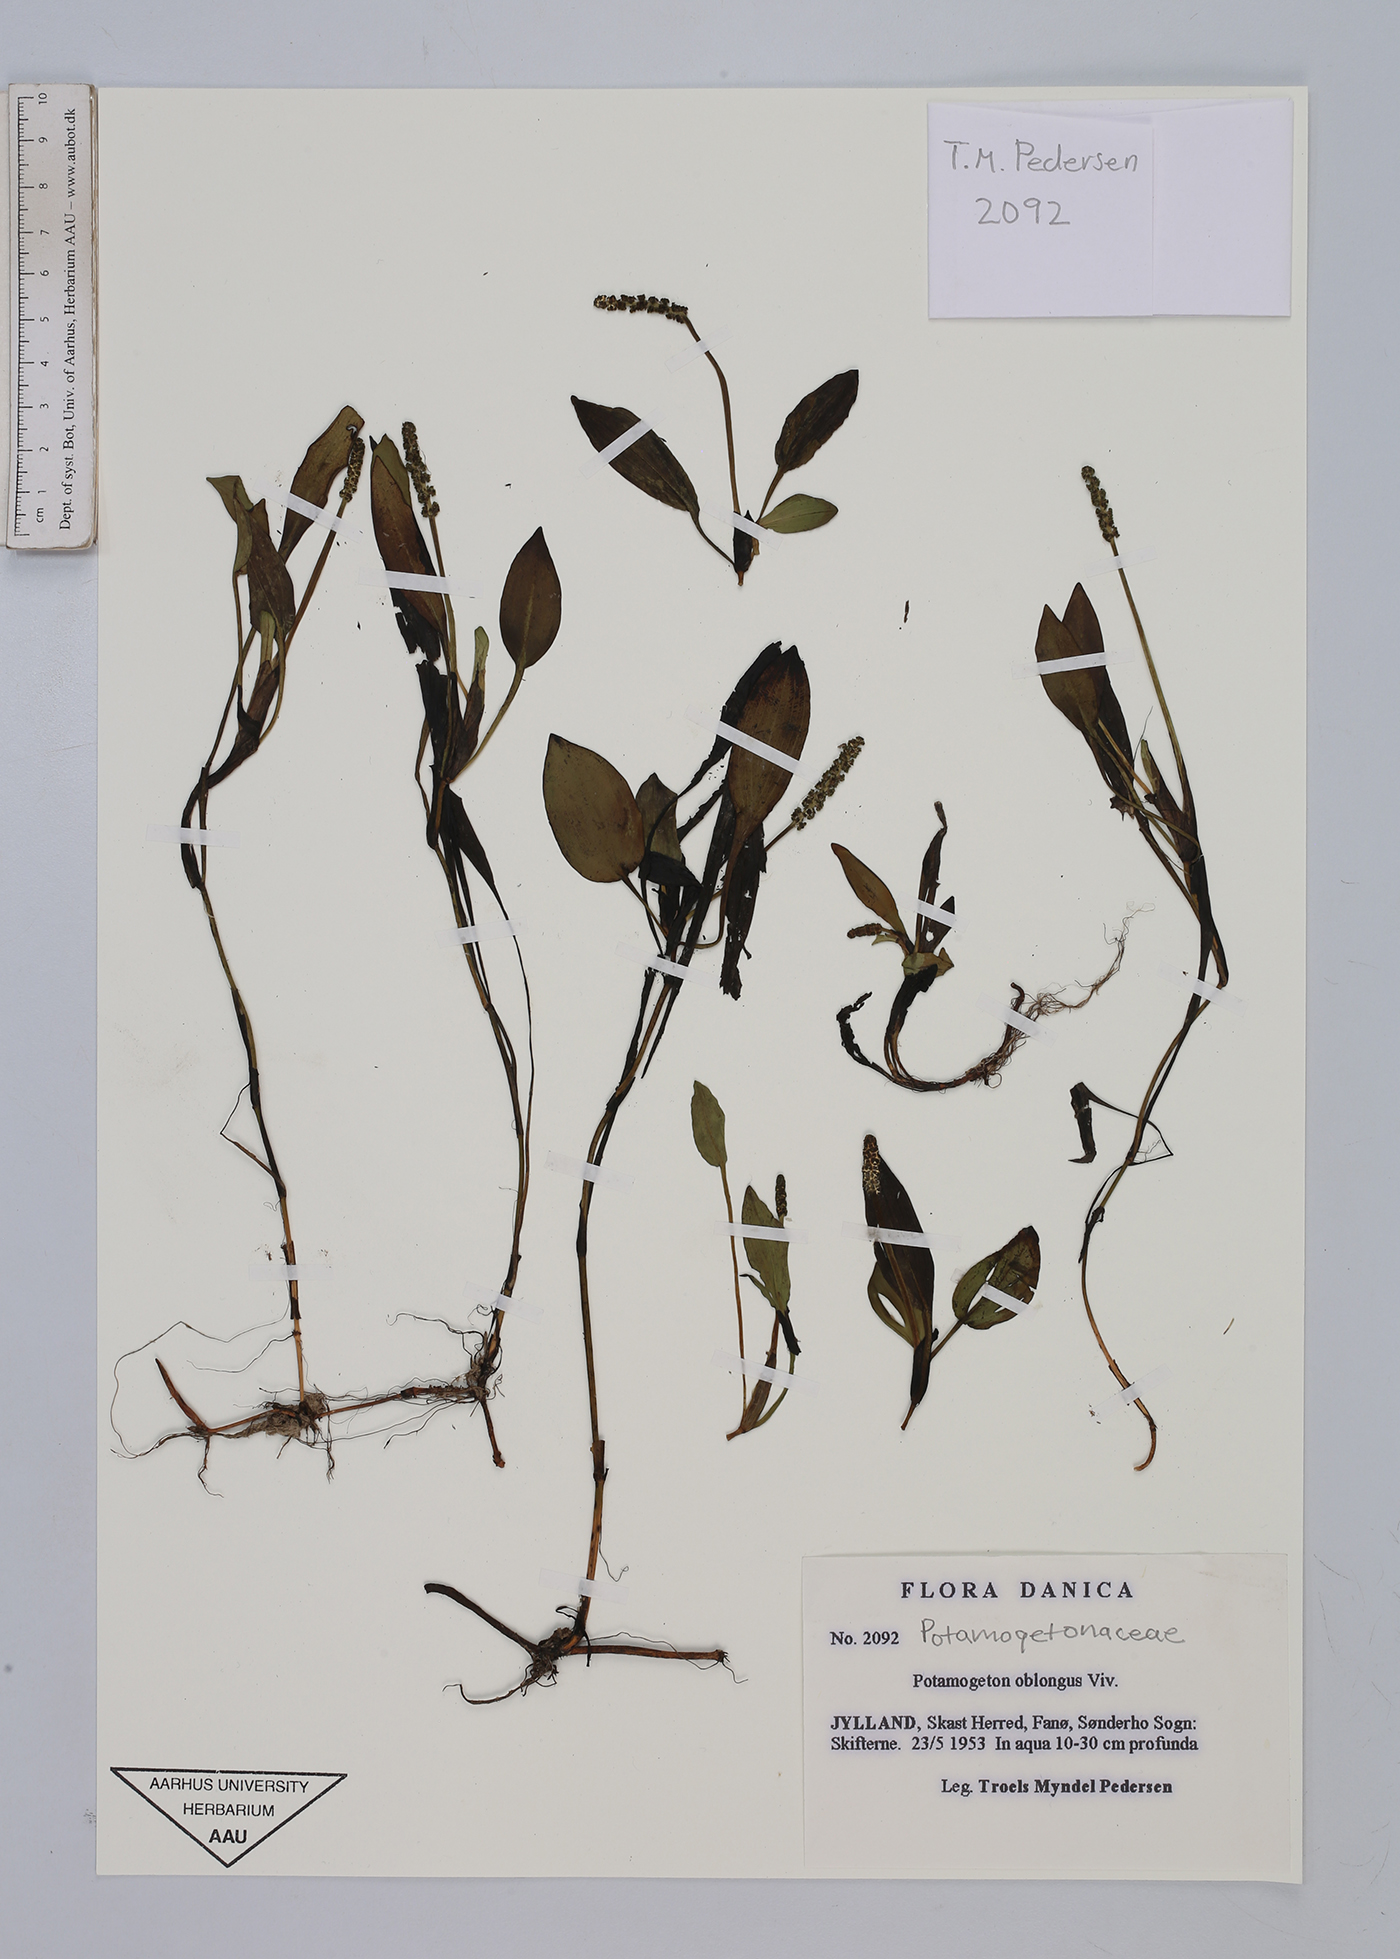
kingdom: Plantae
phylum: Tracheophyta
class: Liliopsida
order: Alismatales
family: Potamogetonaceae
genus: Potamogeton
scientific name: Potamogeton polygonifolius
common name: Bog pondweed
